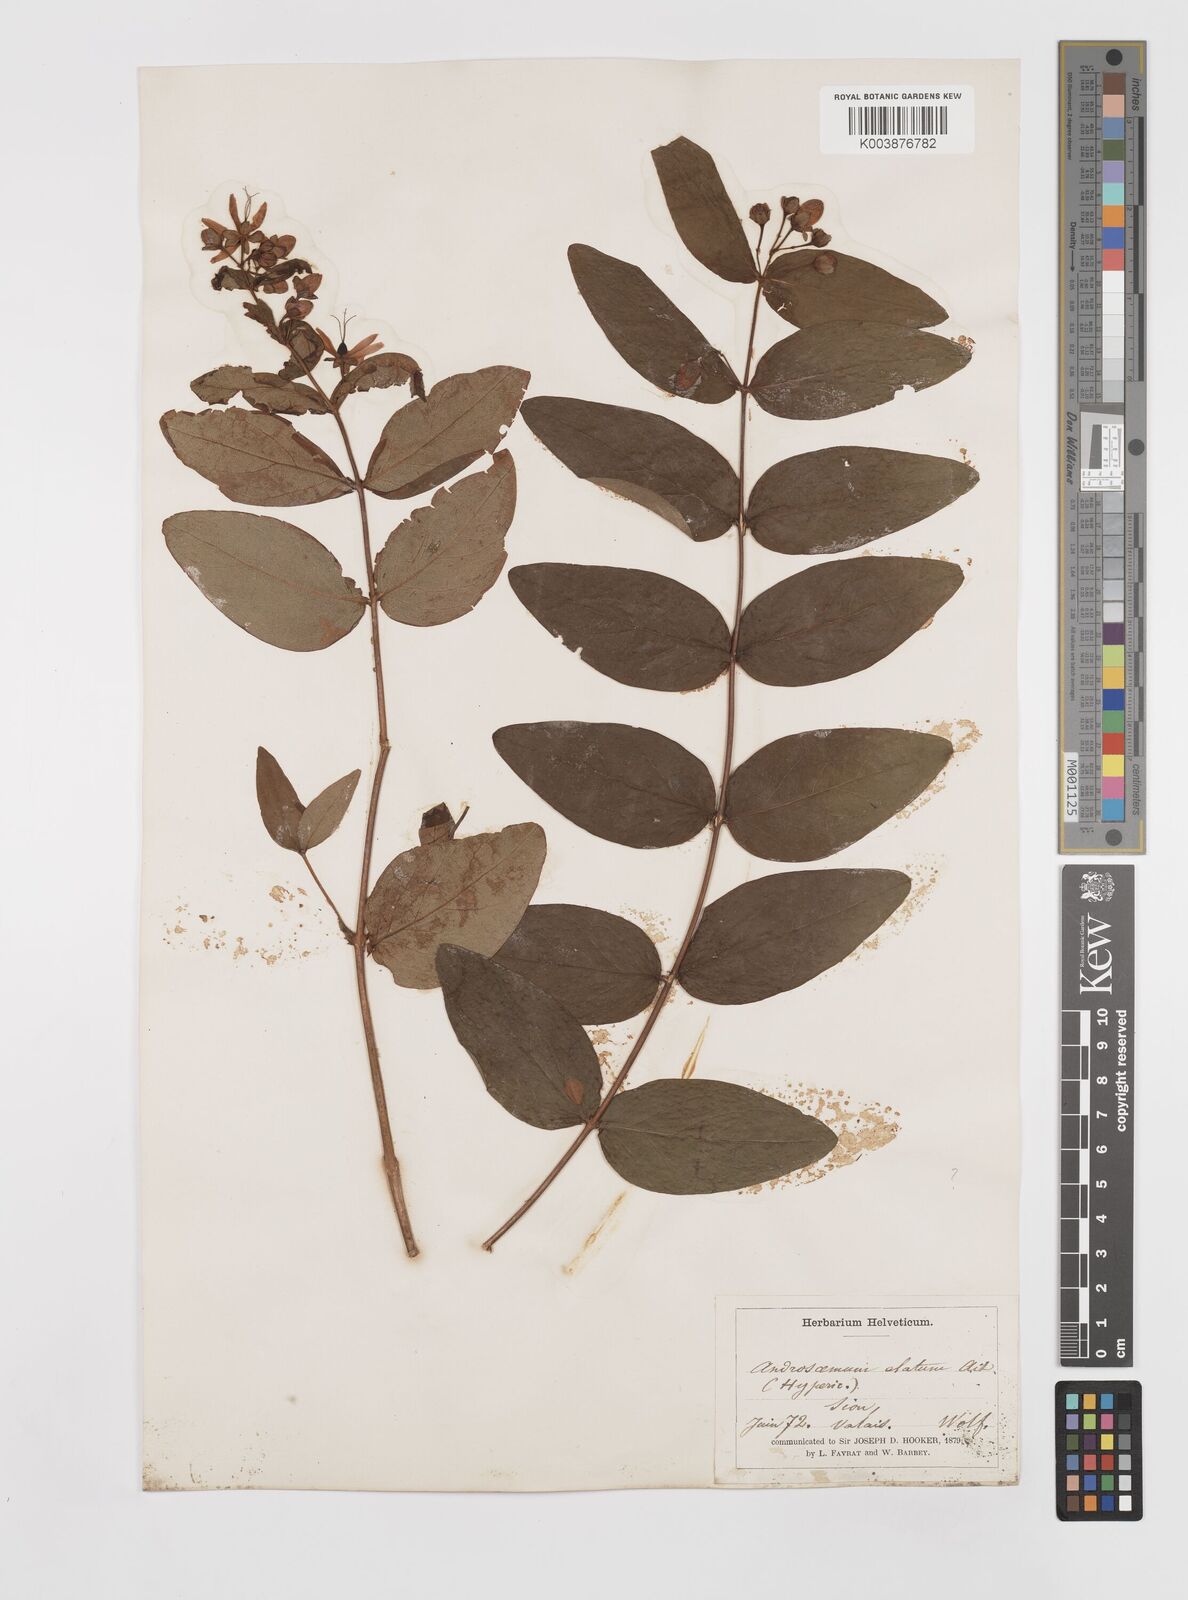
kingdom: Plantae
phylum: Tracheophyta
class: Magnoliopsida
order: Malpighiales
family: Hypericaceae
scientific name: Hypericaceae
